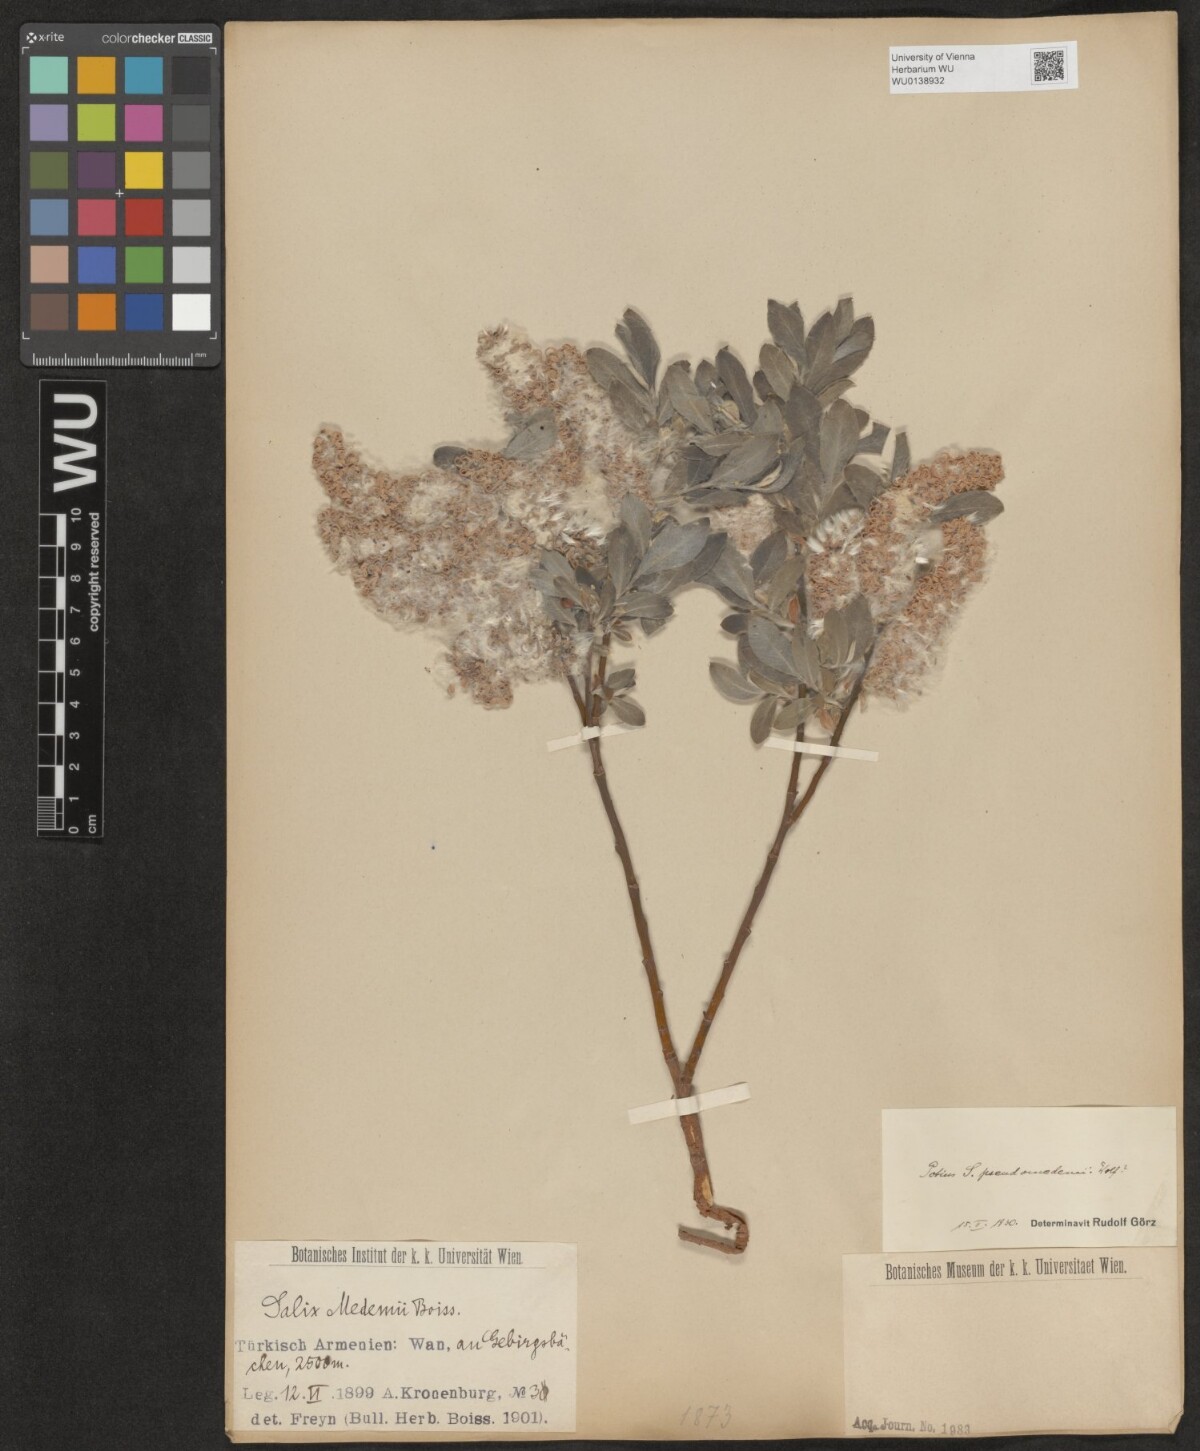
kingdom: Plantae
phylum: Tracheophyta
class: Magnoliopsida
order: Malpighiales
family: Salicaceae
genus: Salix
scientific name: Salix pseudomedemii
